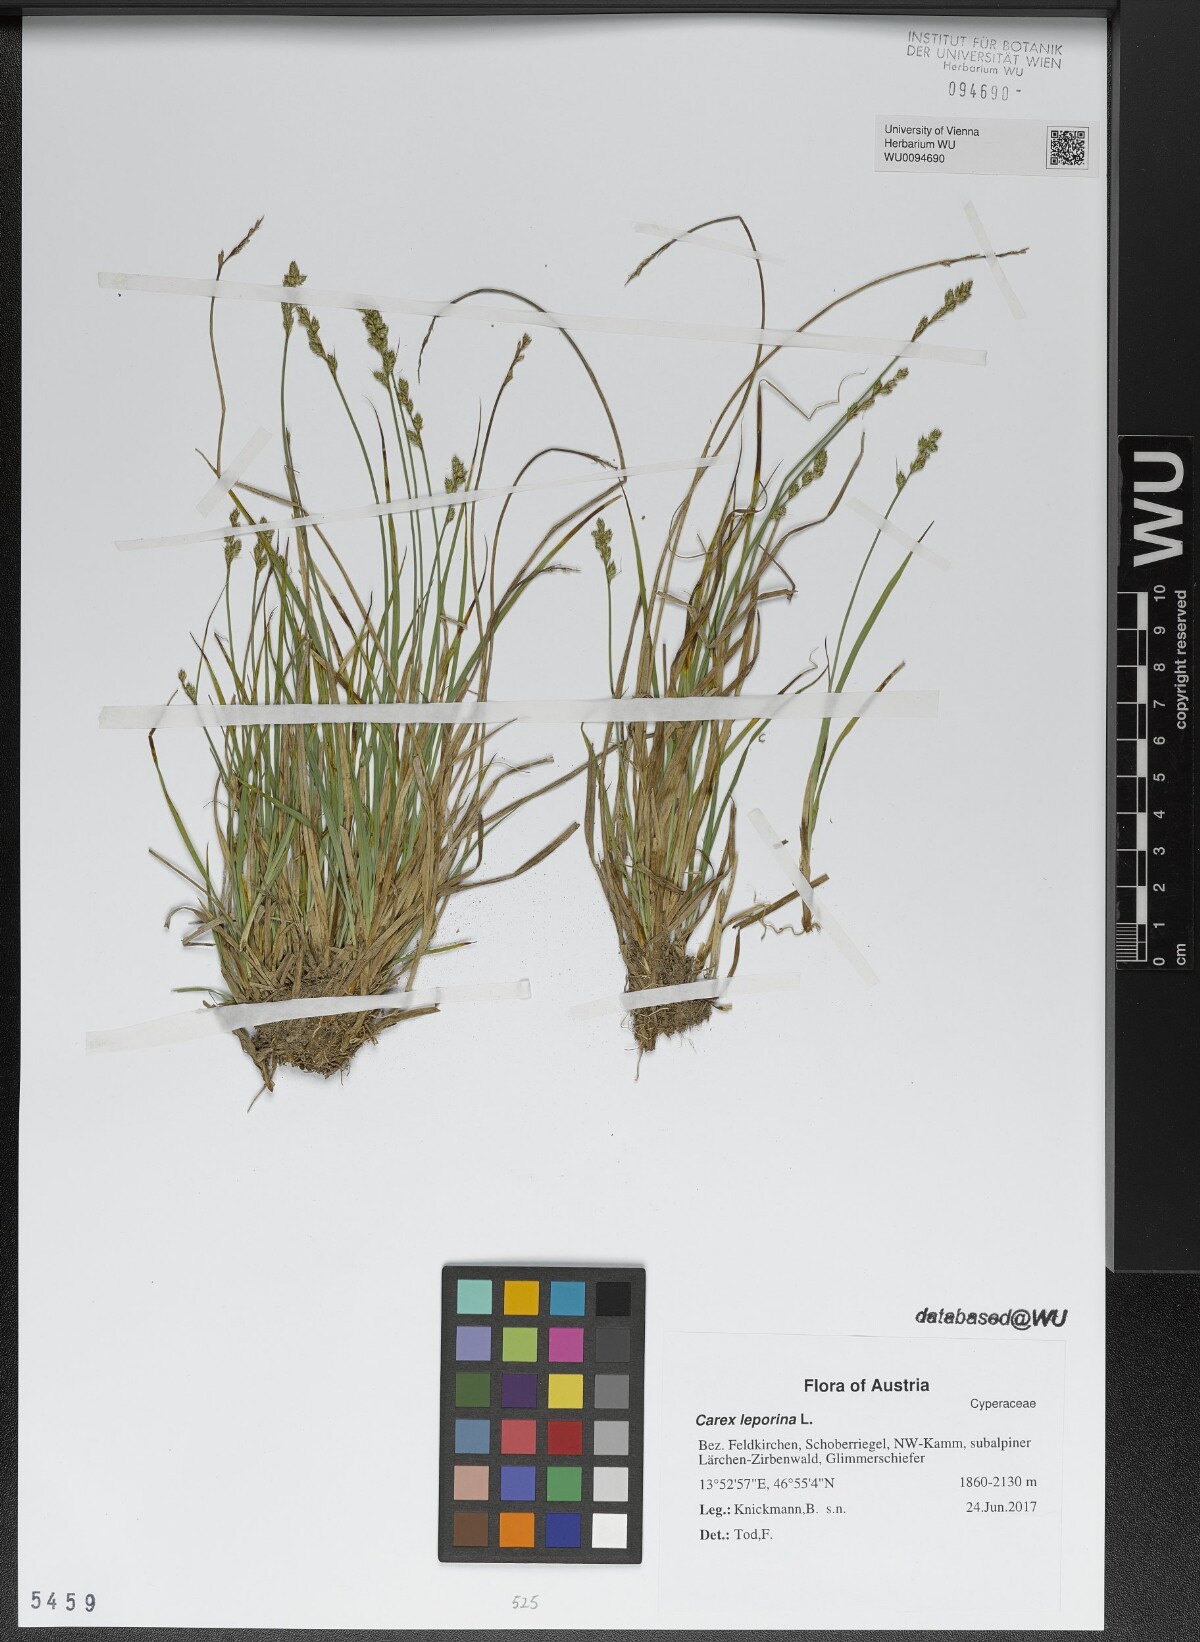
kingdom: Plantae
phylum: Tracheophyta
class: Liliopsida
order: Poales
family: Cyperaceae
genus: Carex
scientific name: Carex leporina
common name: Oval sedge
